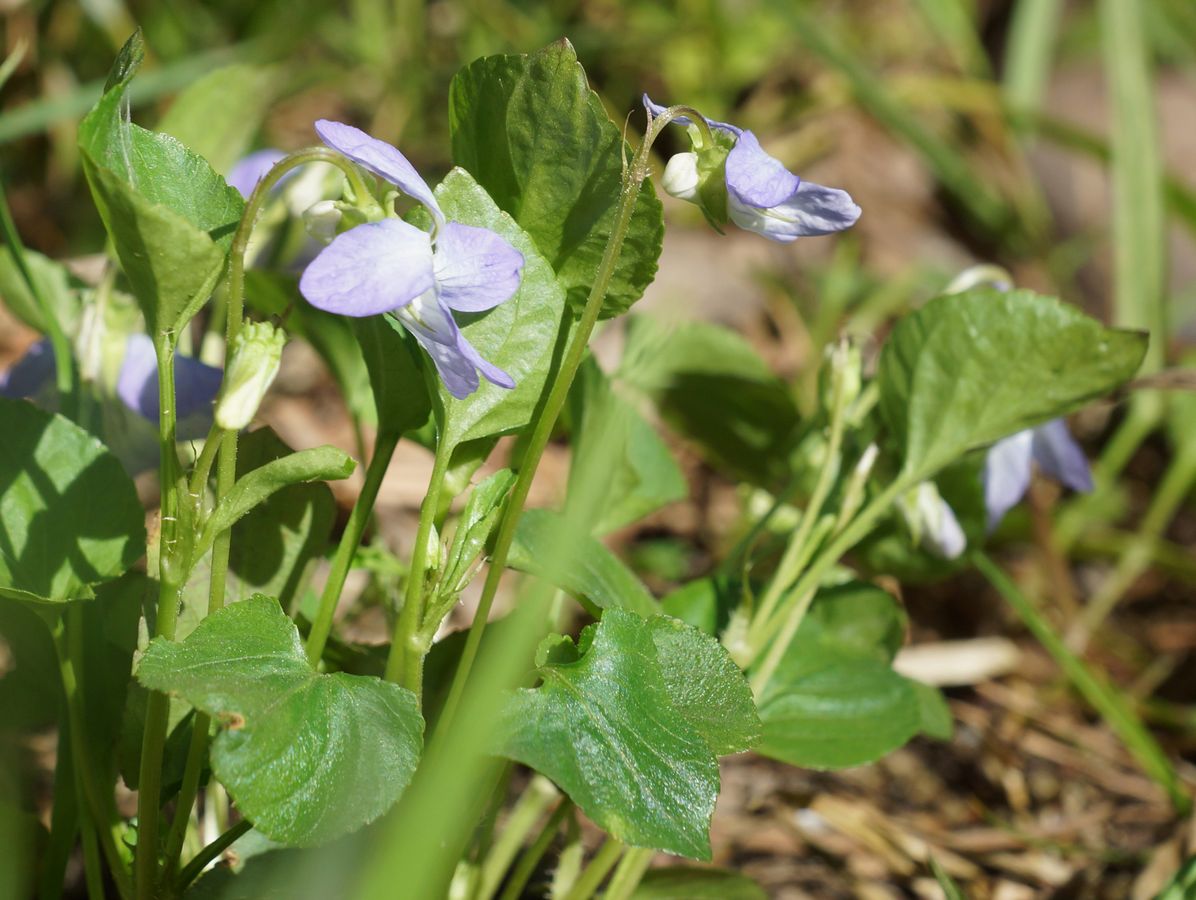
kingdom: Plantae
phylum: Tracheophyta
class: Magnoliopsida
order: Malpighiales
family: Violaceae
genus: Viola
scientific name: Viola mirabilis
